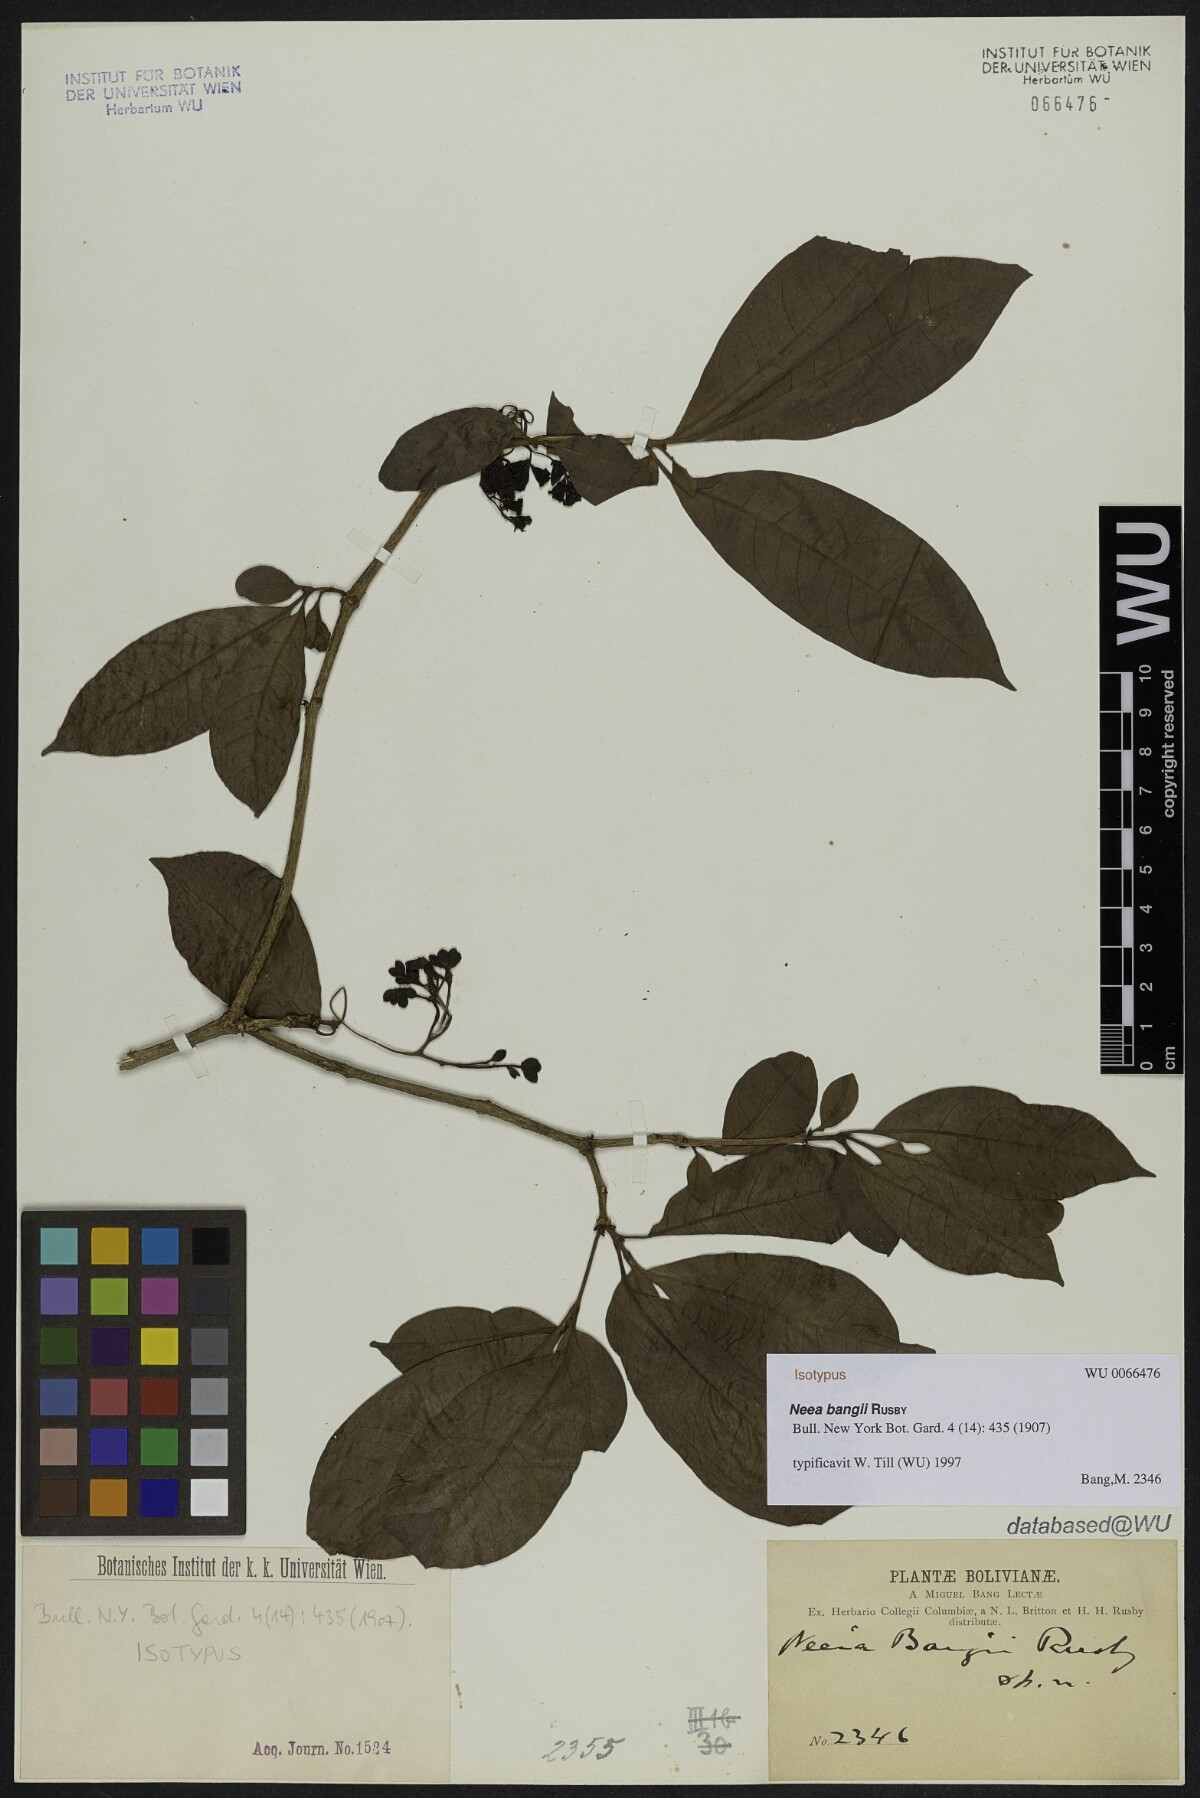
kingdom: Plantae
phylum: Tracheophyta
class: Magnoliopsida
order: Caryophyllales
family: Nyctaginaceae
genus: Neea
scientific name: Neea bangii
